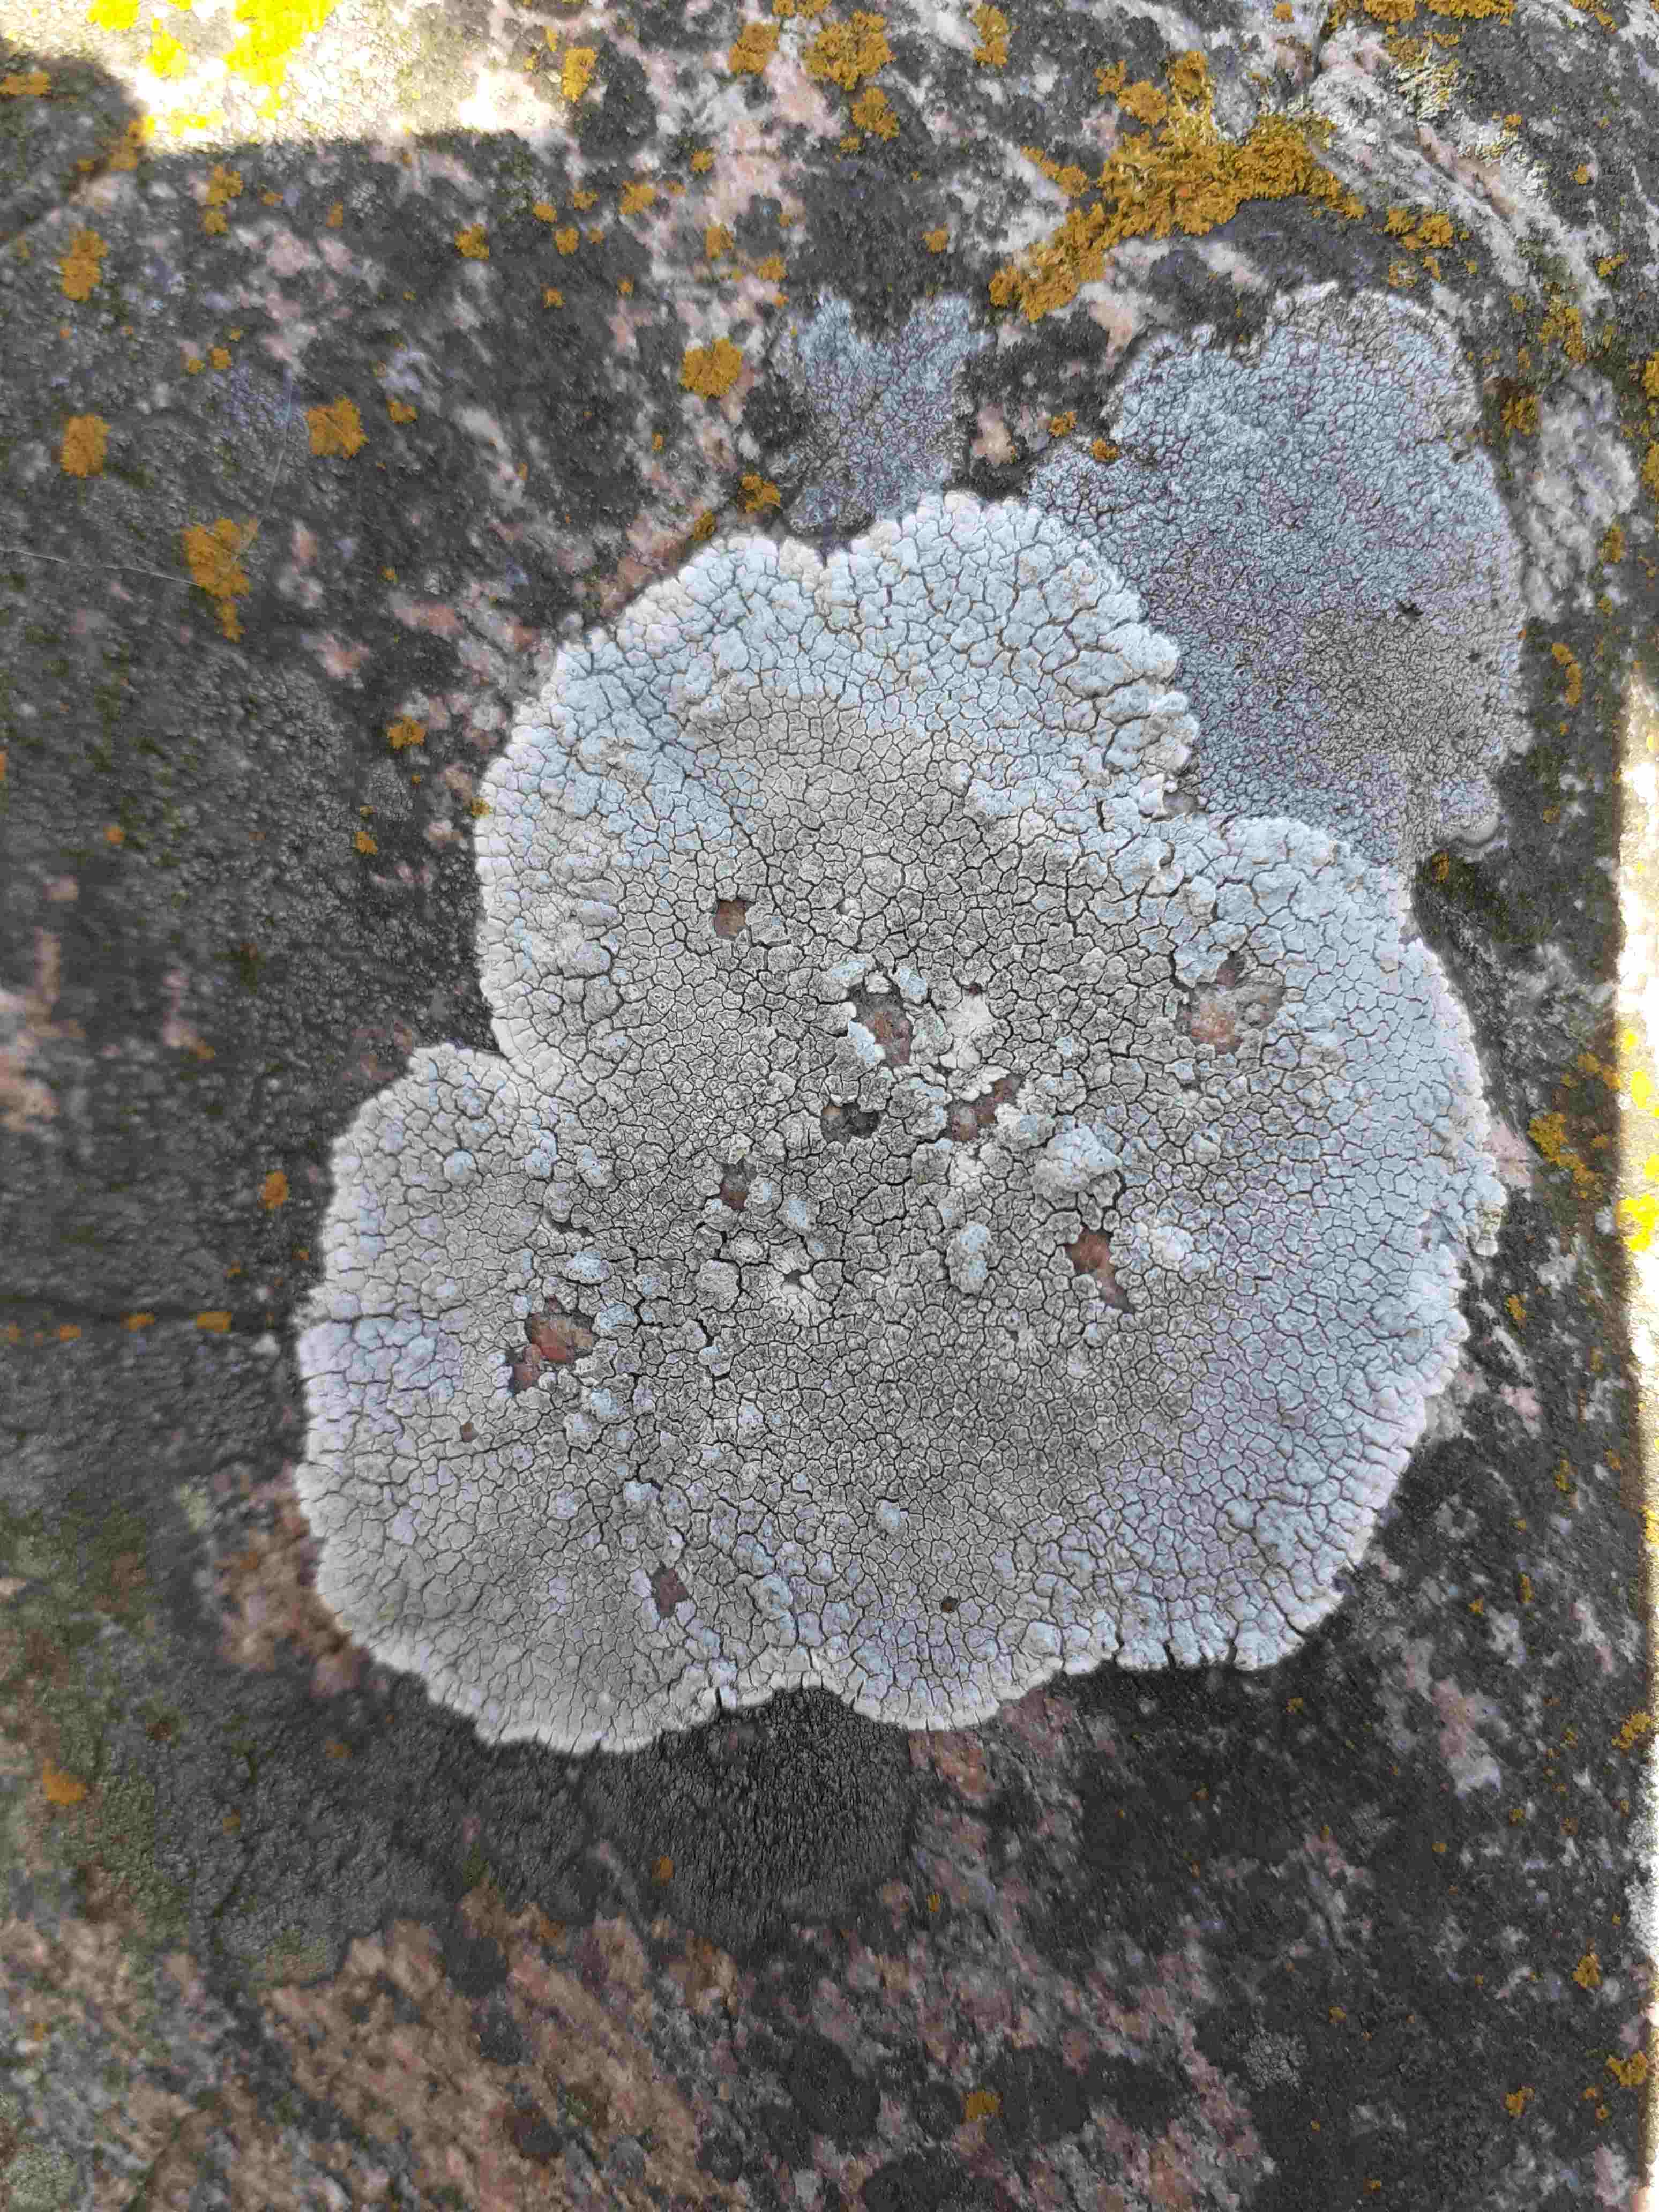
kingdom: Fungi
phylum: Ascomycota
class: Lecanoromycetes
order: Lecanorales
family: Parmeliaceae
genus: Lichen
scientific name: Lichen
